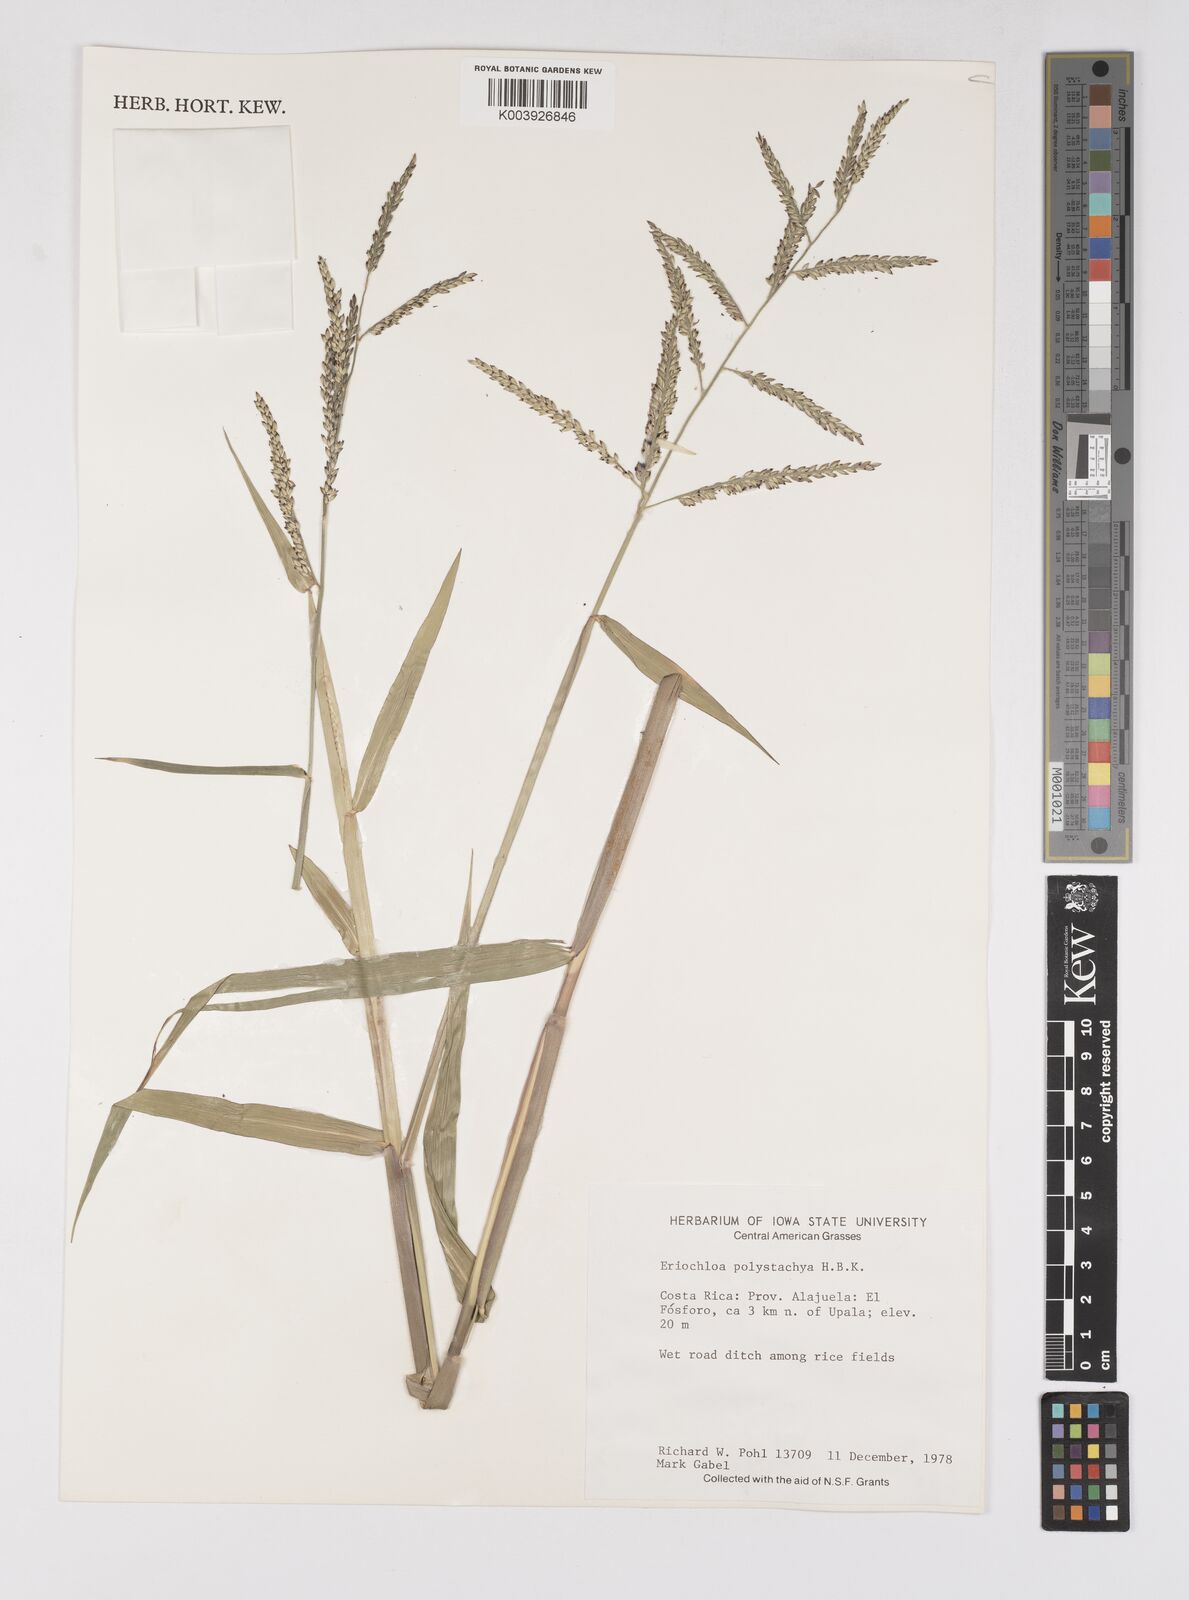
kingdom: Plantae
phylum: Tracheophyta
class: Liliopsida
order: Poales
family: Poaceae
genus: Urochloa
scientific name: Urochloa polystachya
